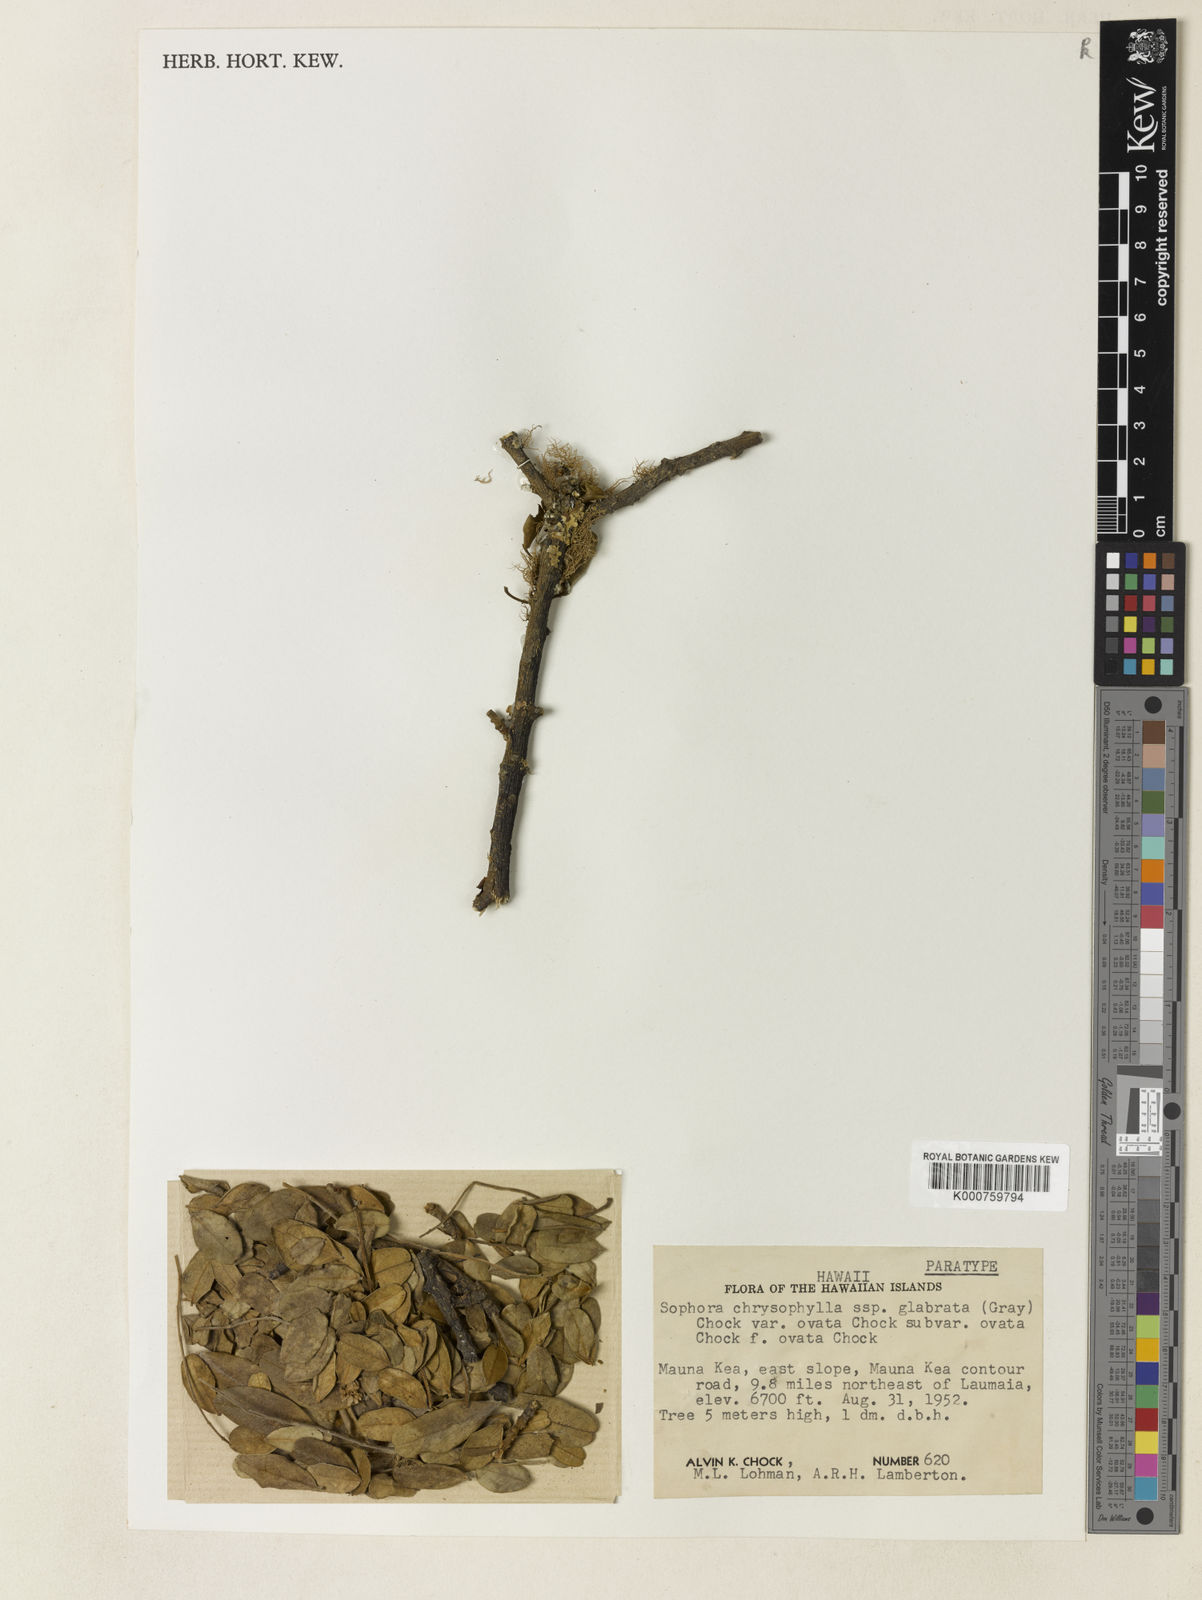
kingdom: Plantae
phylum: Tracheophyta
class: Magnoliopsida
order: Fabales
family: Fabaceae
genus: Sophora
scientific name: Sophora chrysophylla
